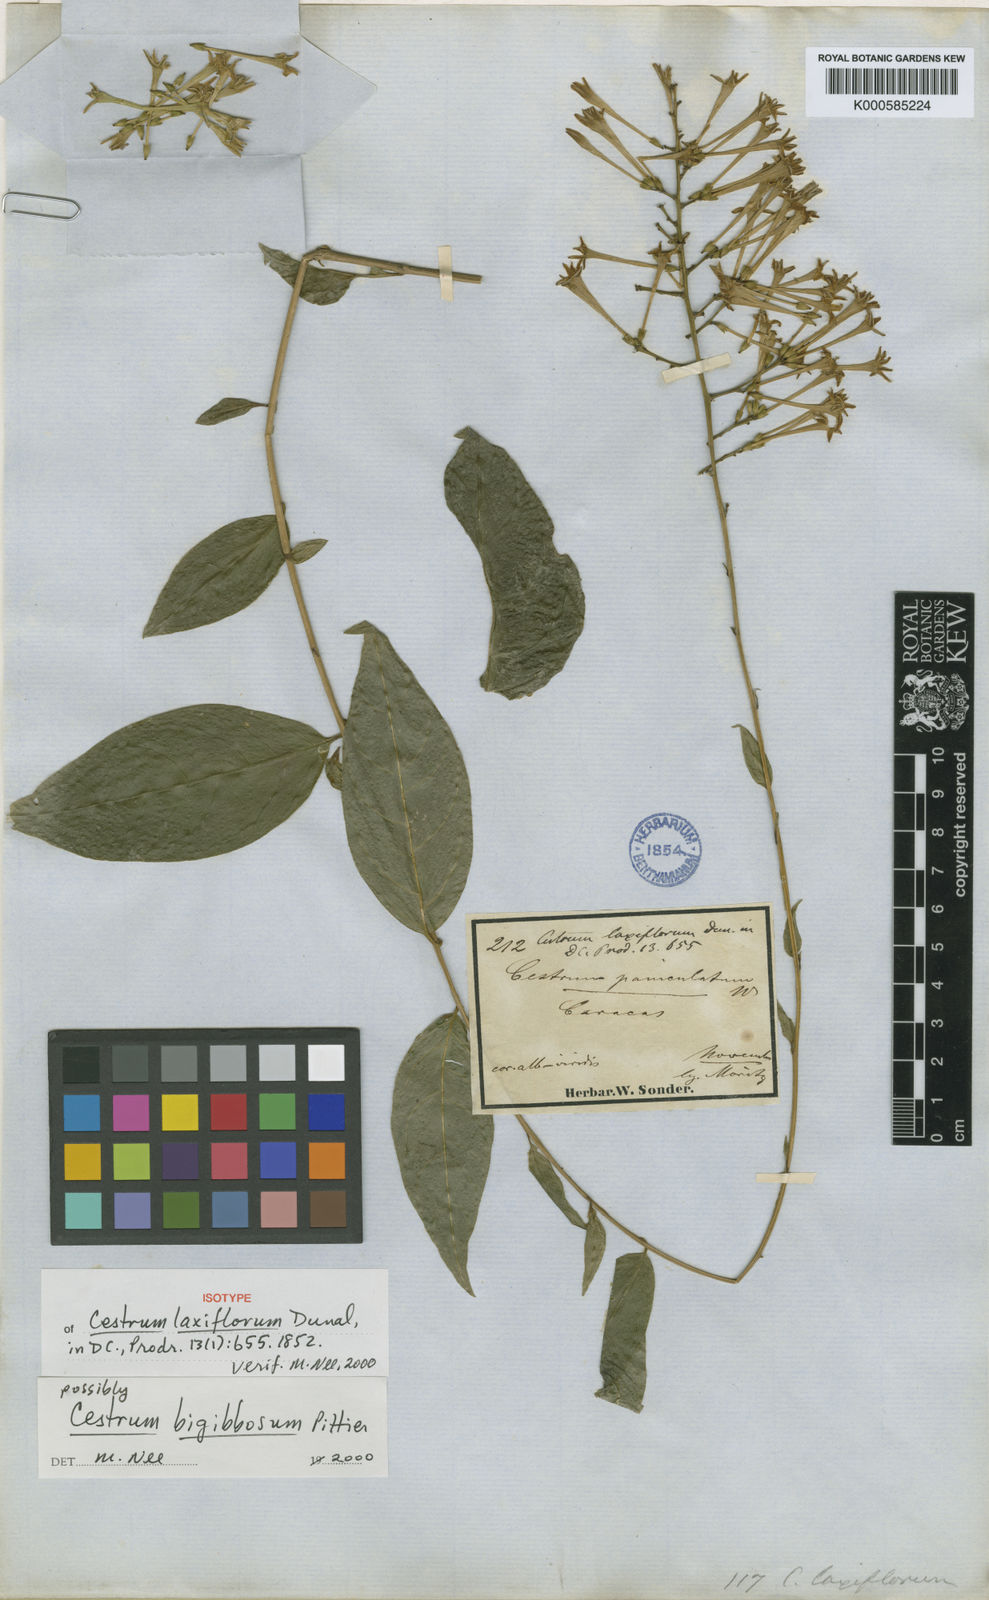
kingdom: Plantae
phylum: Tracheophyta
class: Magnoliopsida
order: Solanales
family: Solanaceae
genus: Cestrum
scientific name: Cestrum scandens
